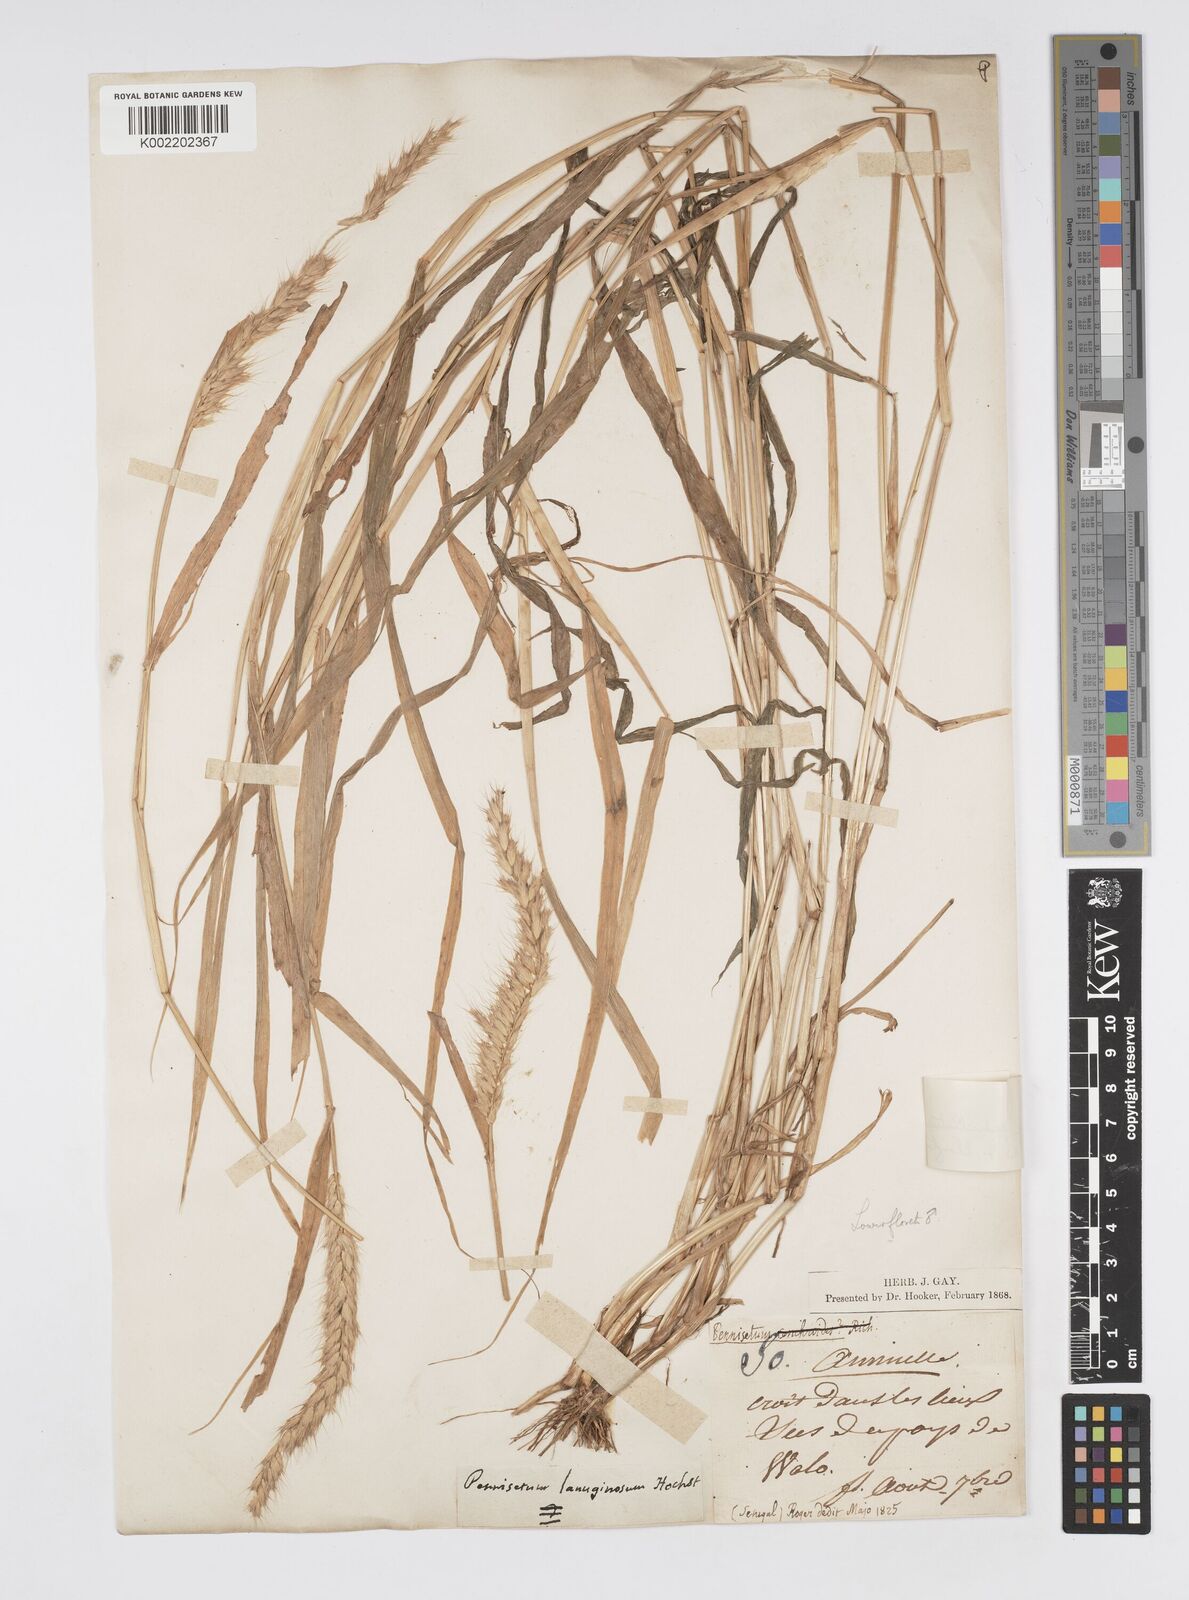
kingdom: Plantae
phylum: Tracheophyta
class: Liliopsida
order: Poales
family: Poaceae
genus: Cenchrus
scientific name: Cenchrus pedicellatus
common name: Hairy fountain grass
